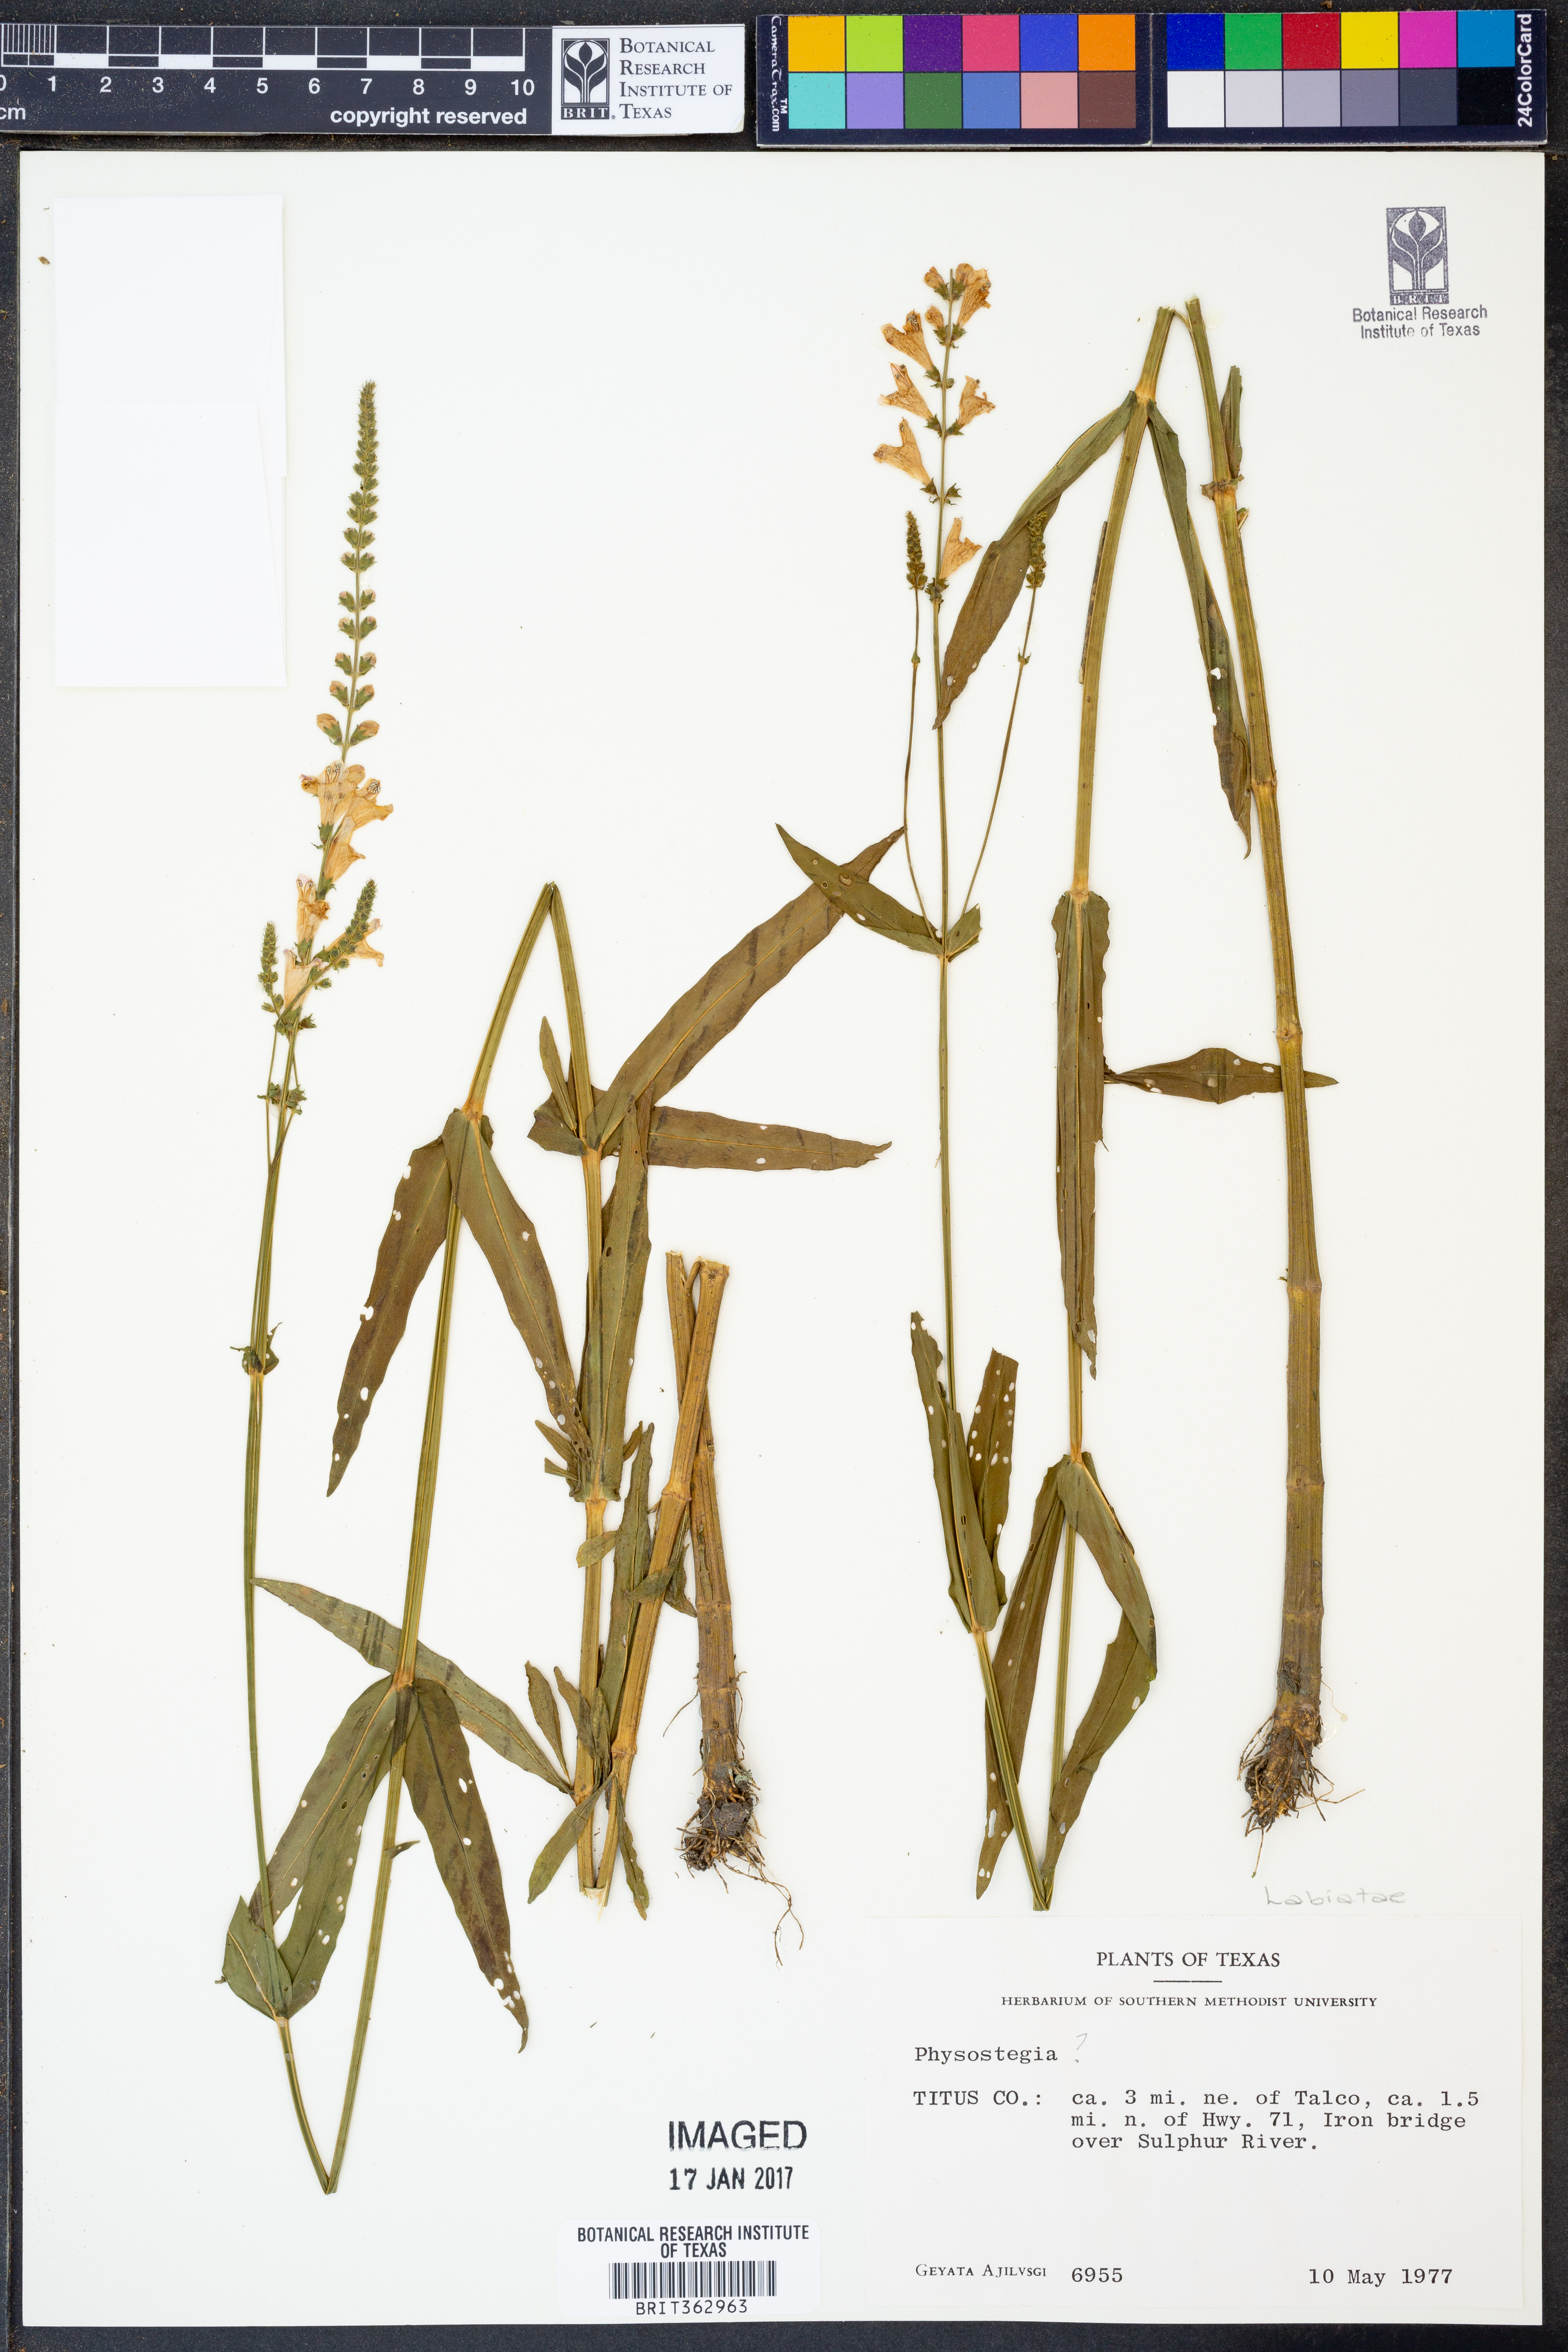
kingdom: Plantae
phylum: Tracheophyta
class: Magnoliopsida
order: Lamiales
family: Lamiaceae
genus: Physostegia
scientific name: Physostegia
